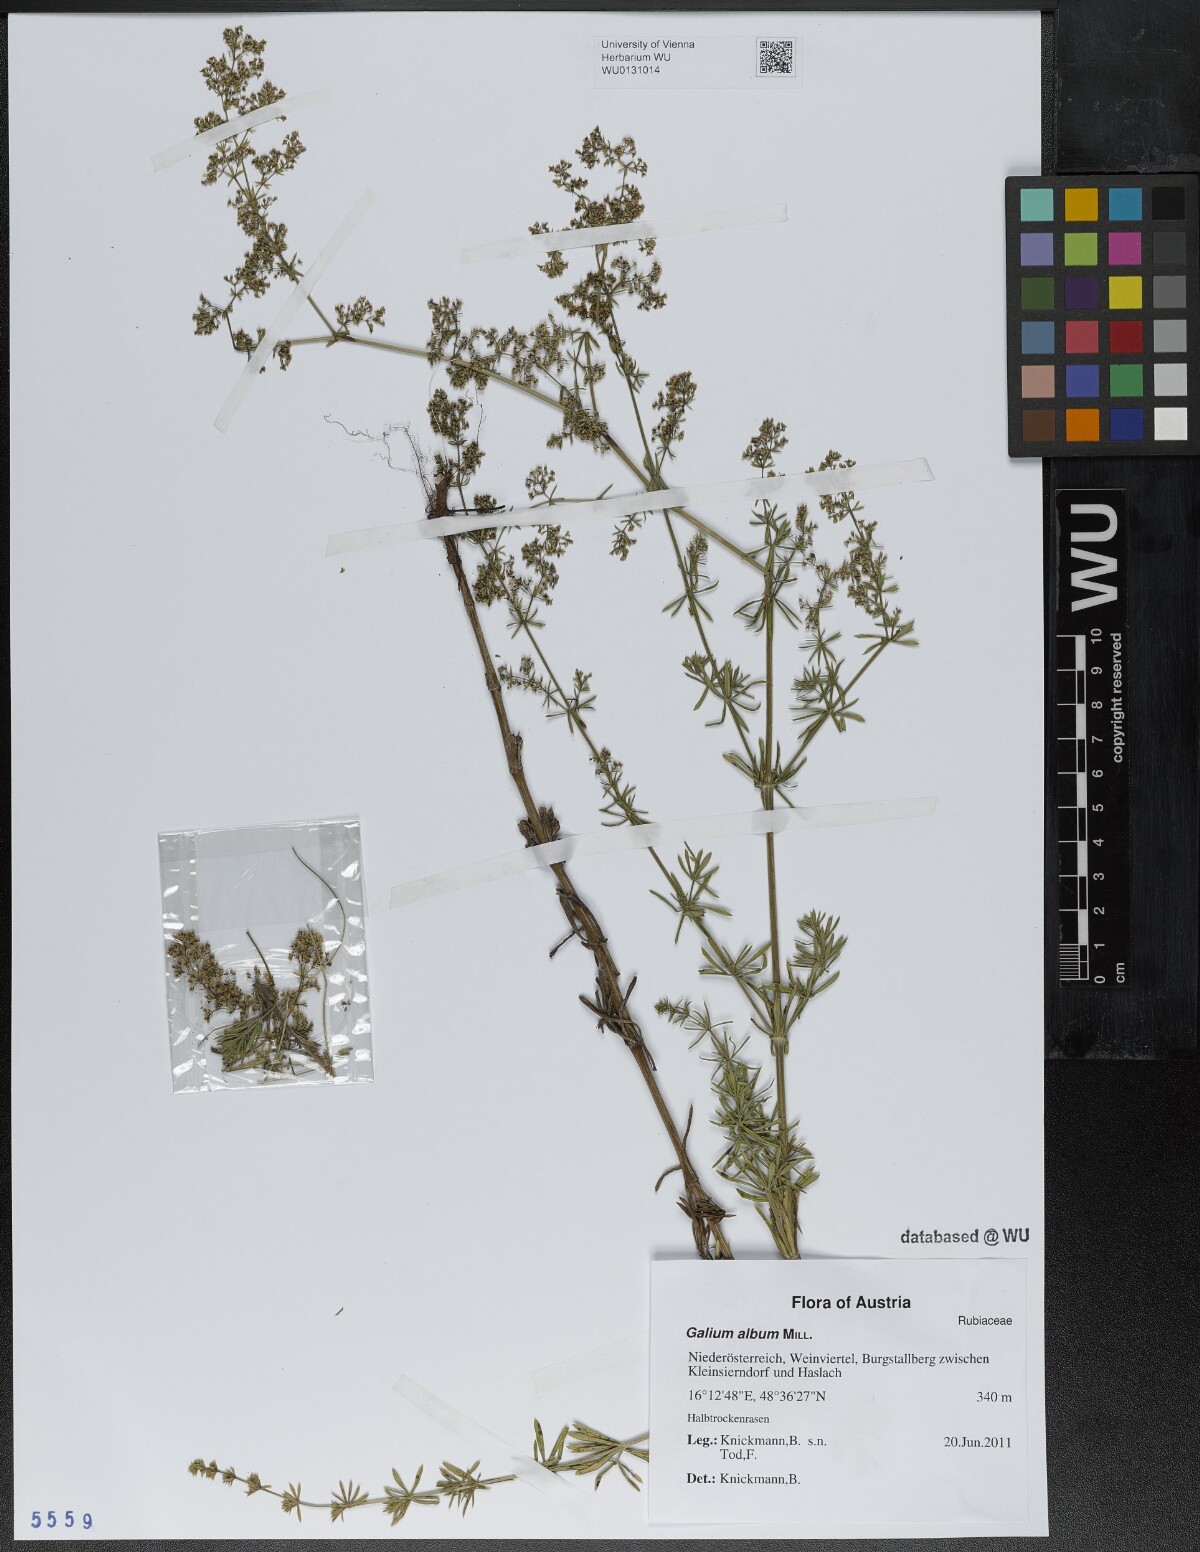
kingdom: Plantae
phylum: Tracheophyta
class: Magnoliopsida
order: Gentianales
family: Rubiaceae
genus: Galium
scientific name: Galium album
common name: White bedstraw
